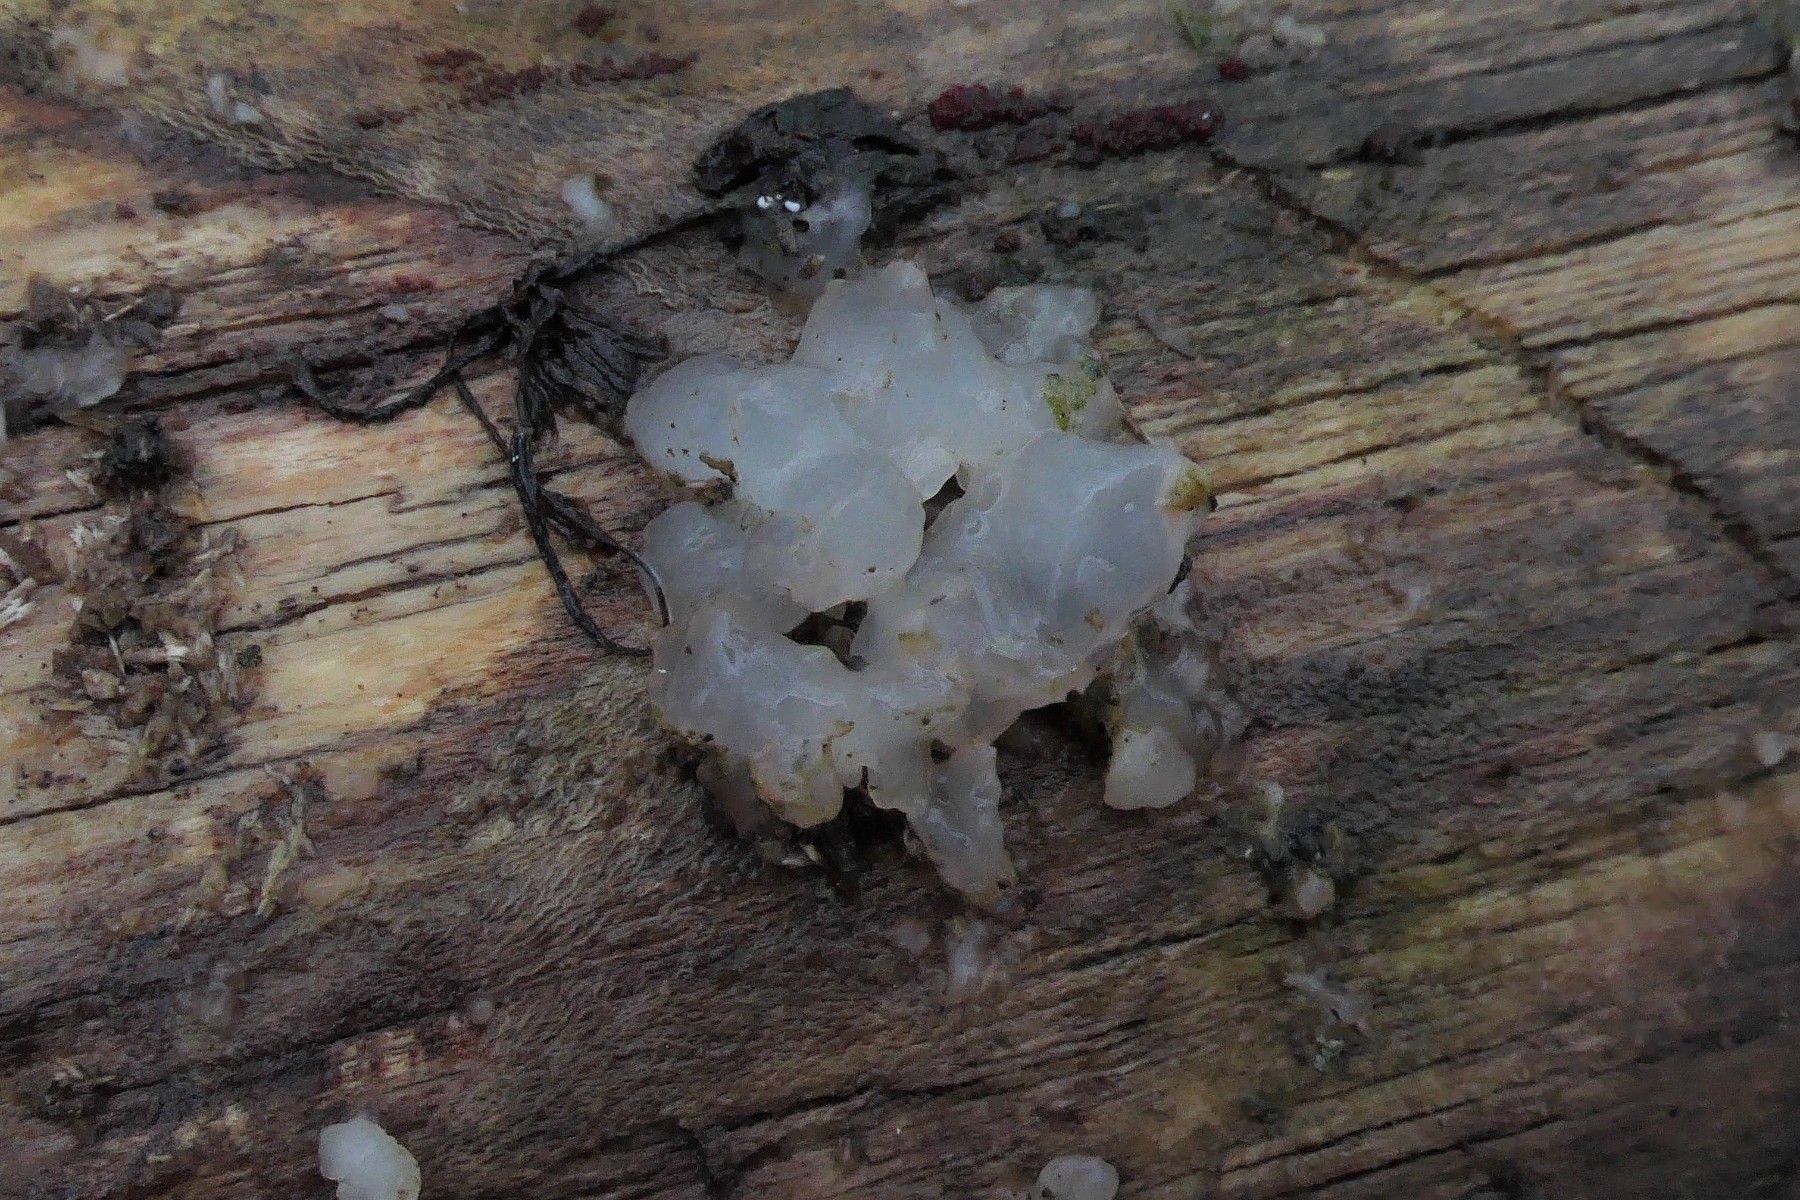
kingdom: Fungi
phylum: Basidiomycota
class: Agaricomycetes
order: Auriculariales
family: Hyaloriaceae
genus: Myxarium
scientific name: Myxarium nucleatum
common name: klar bævretop
